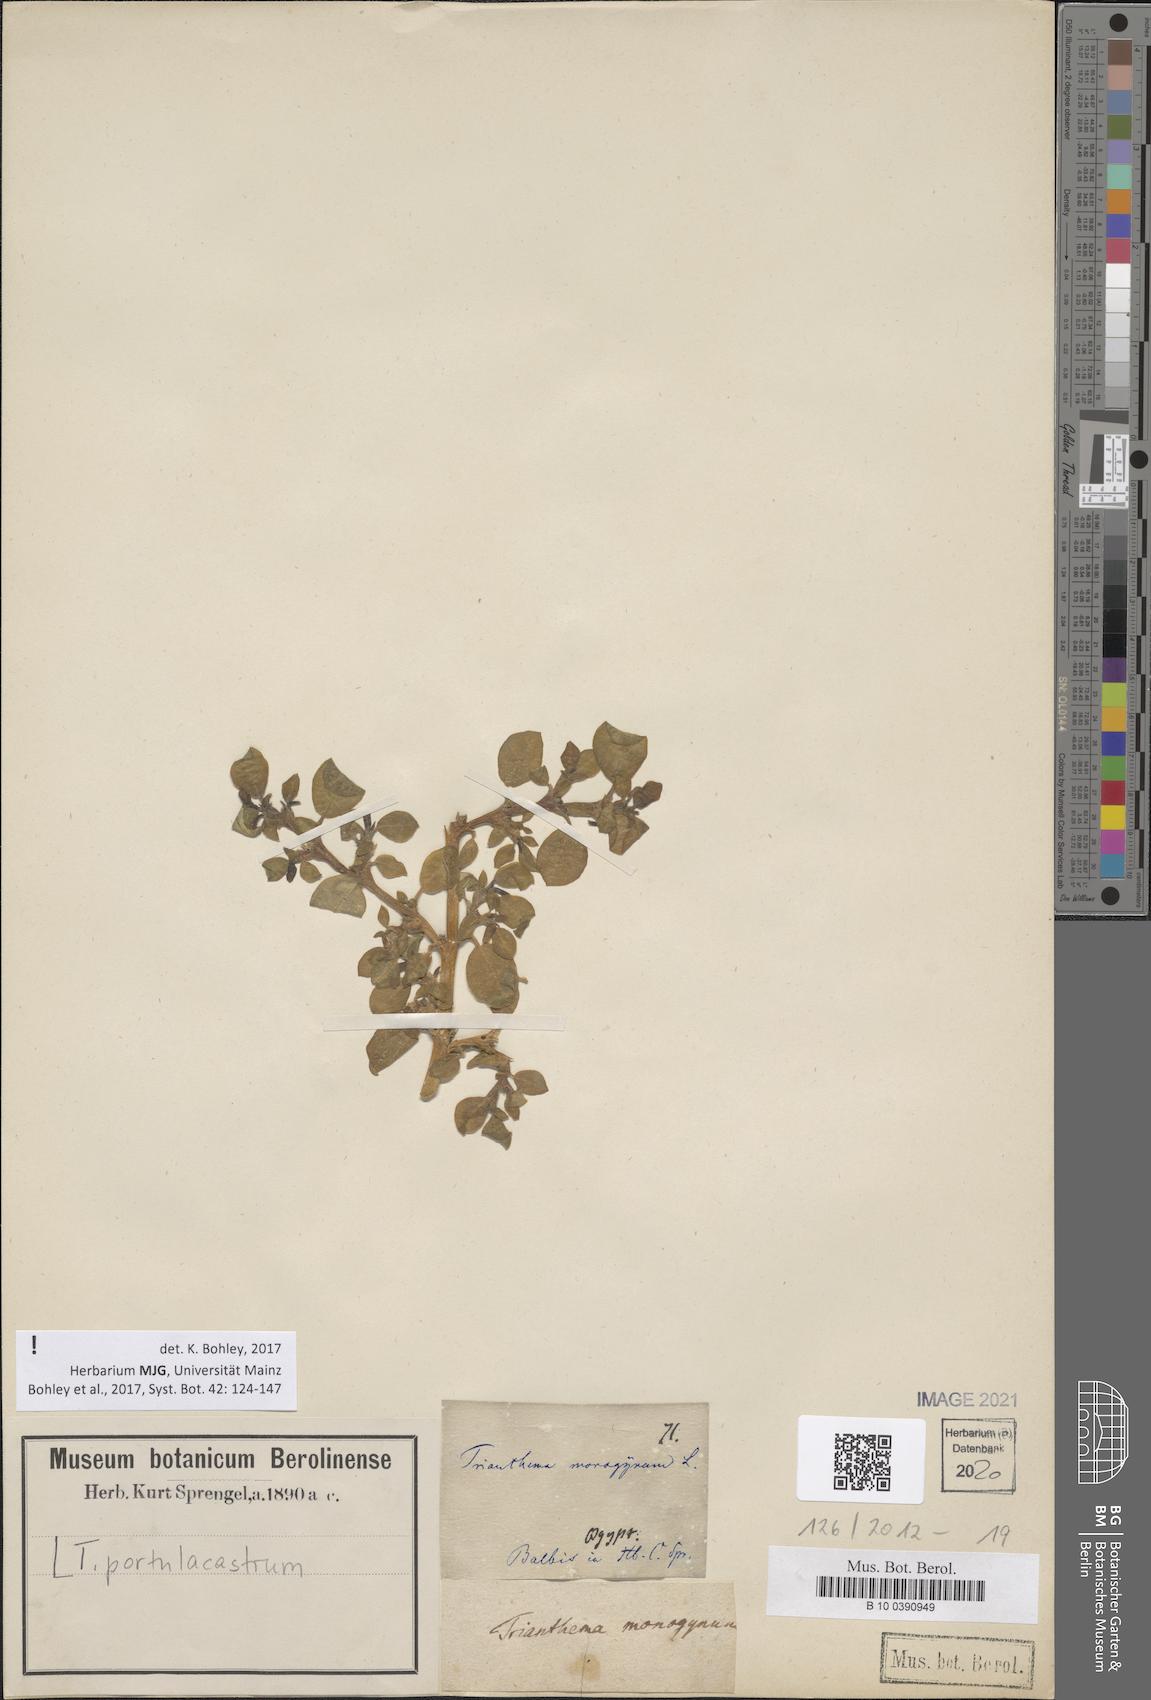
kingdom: Plantae
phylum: Tracheophyta
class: Magnoliopsida
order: Caryophyllales
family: Aizoaceae
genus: Trianthema
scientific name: Trianthema portulacastrum
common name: Desert horsepurslane
